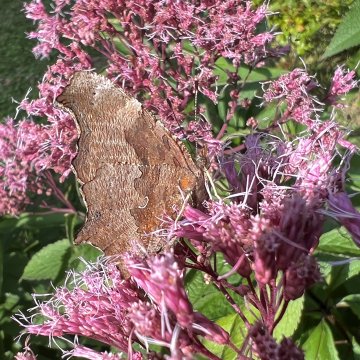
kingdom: Animalia
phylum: Arthropoda
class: Insecta
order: Lepidoptera
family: Nymphalidae
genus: Polygonia
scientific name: Polygonia comma
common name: Eastern Comma
